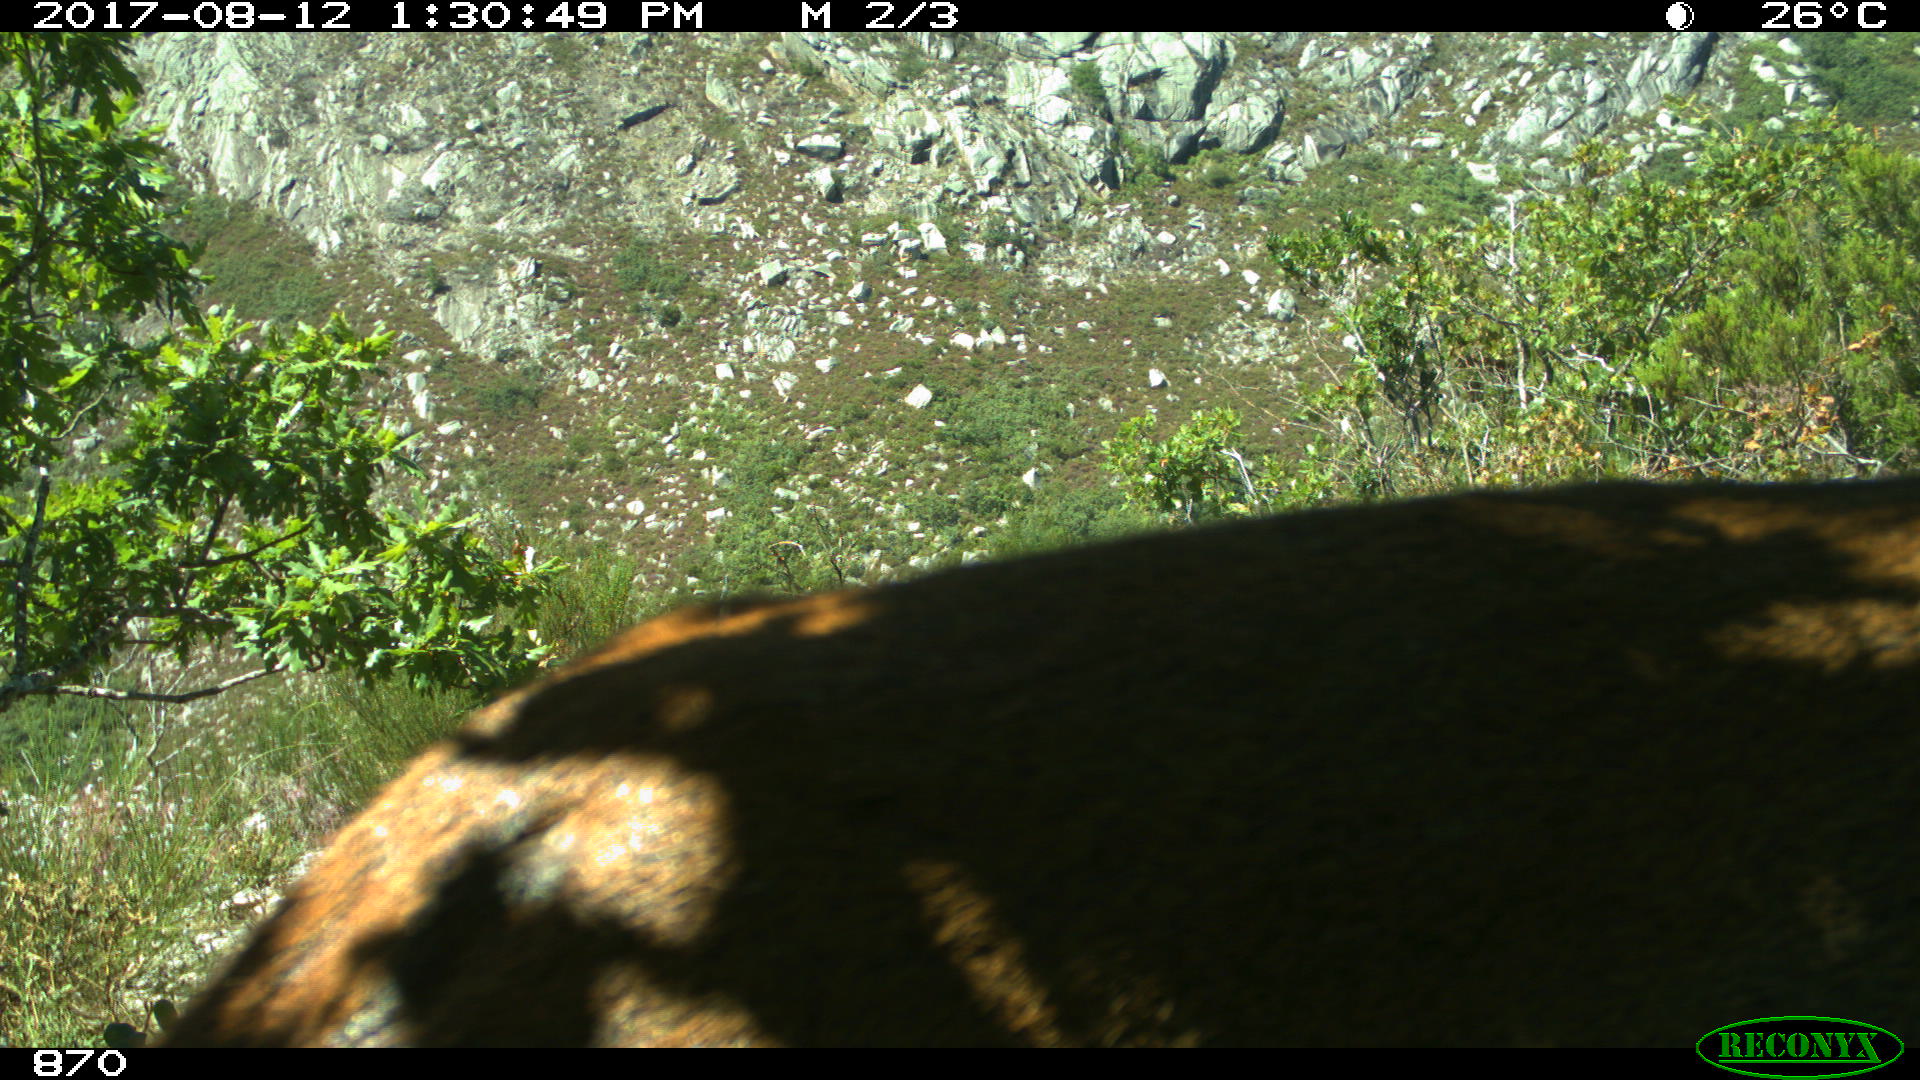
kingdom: Animalia
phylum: Chordata
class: Mammalia
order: Artiodactyla
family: Cervidae
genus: Capreolus
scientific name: Capreolus capreolus
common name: Western roe deer
